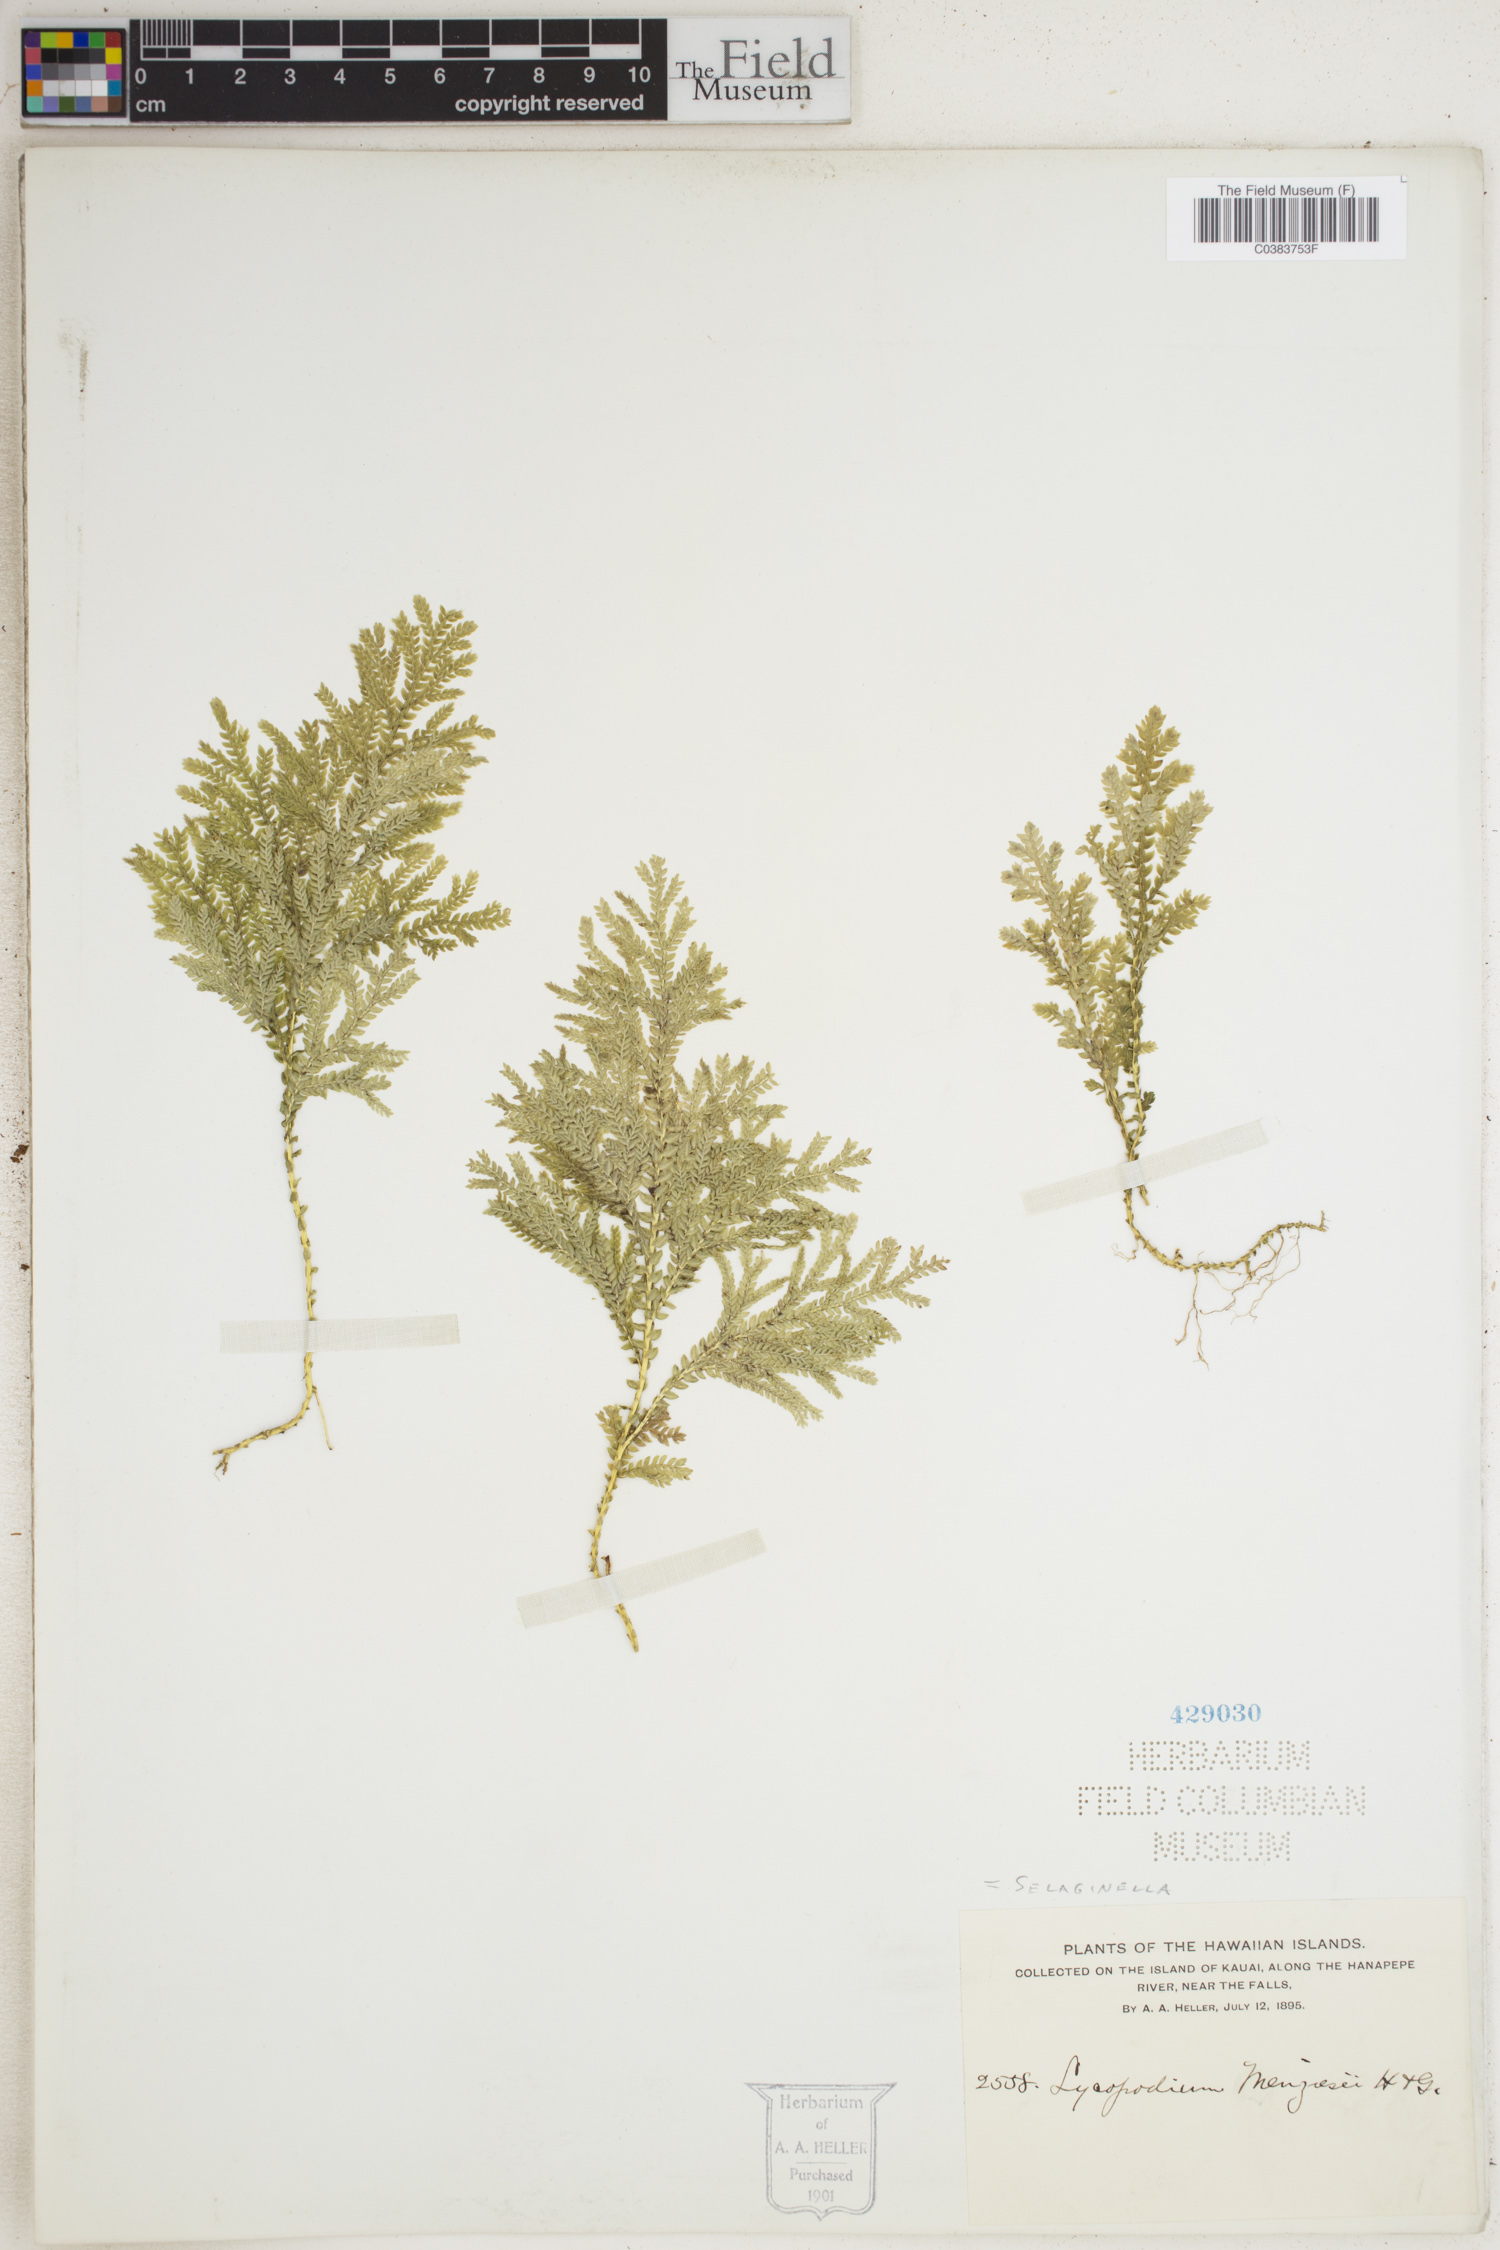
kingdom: Plantae
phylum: Tracheophyta
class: Lycopodiopsida
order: Selaginellales
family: Selaginellaceae
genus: Selaginella
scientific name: Selaginella menziesii
